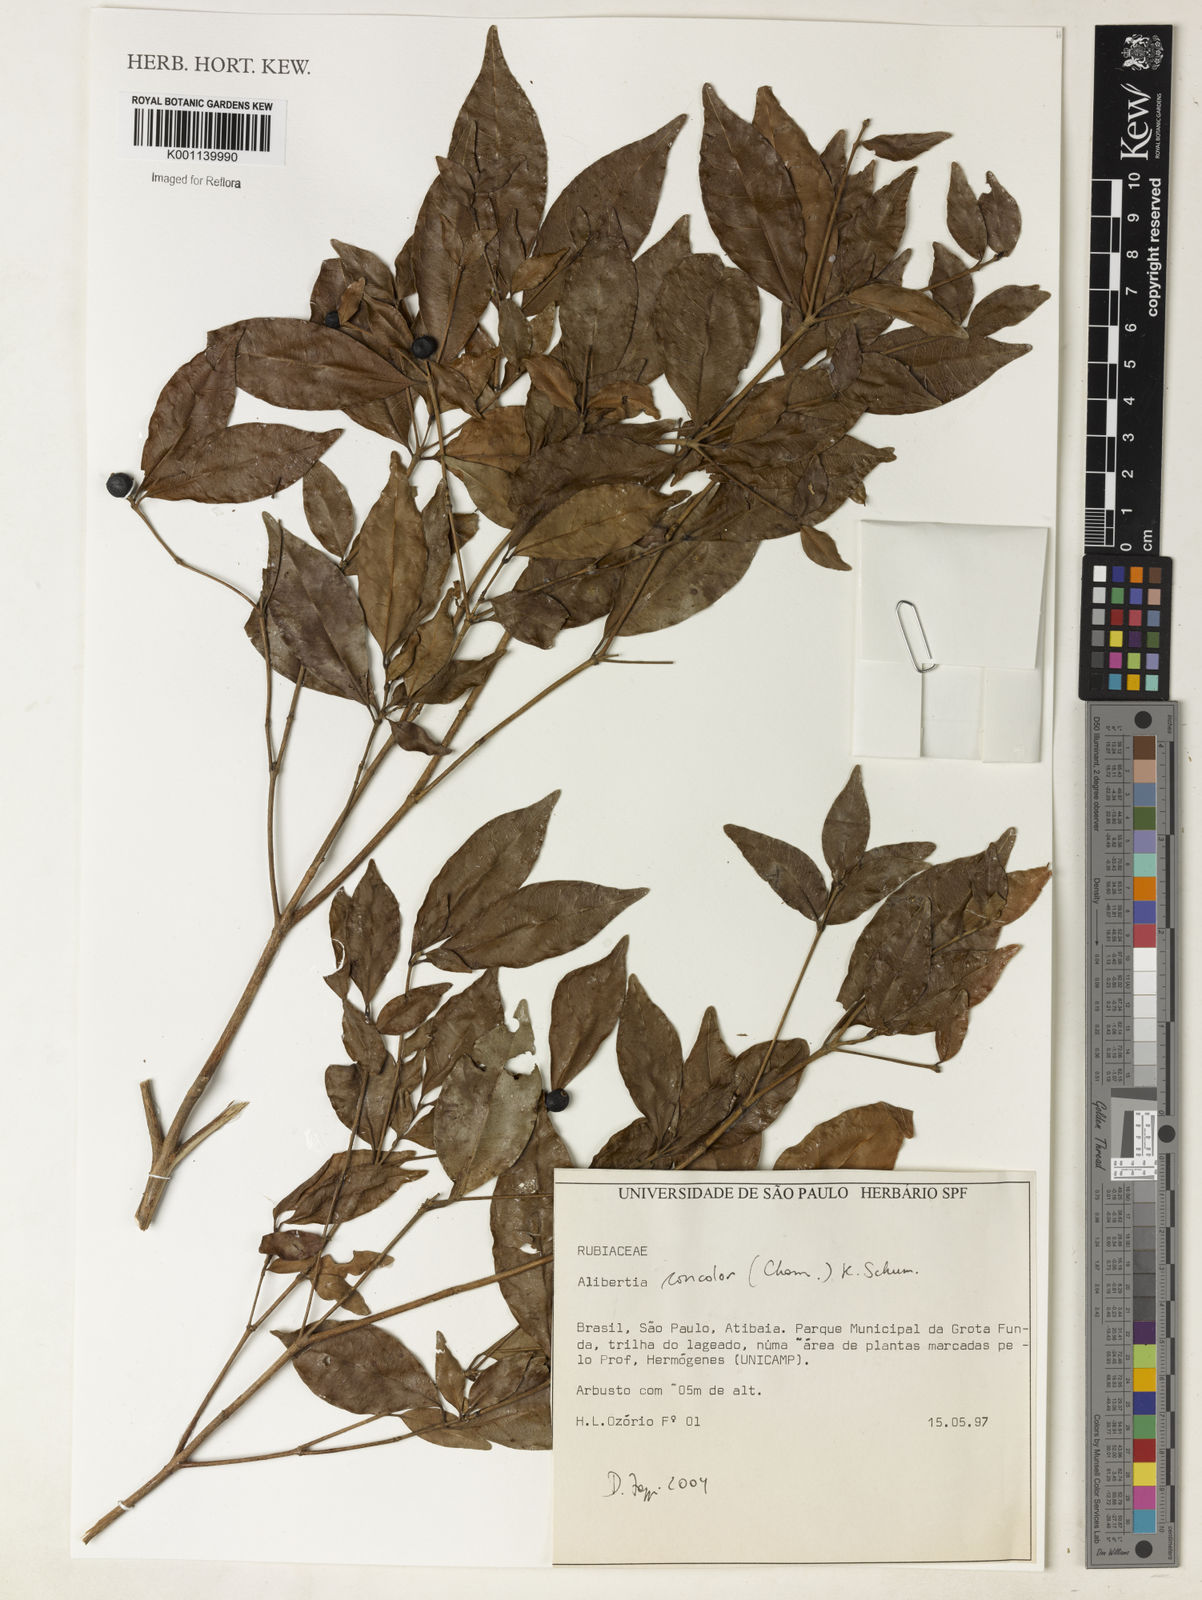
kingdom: Plantae
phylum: Tracheophyta
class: Magnoliopsida
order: Gentianales
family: Rubiaceae
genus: Cordiera
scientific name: Cordiera concolor
